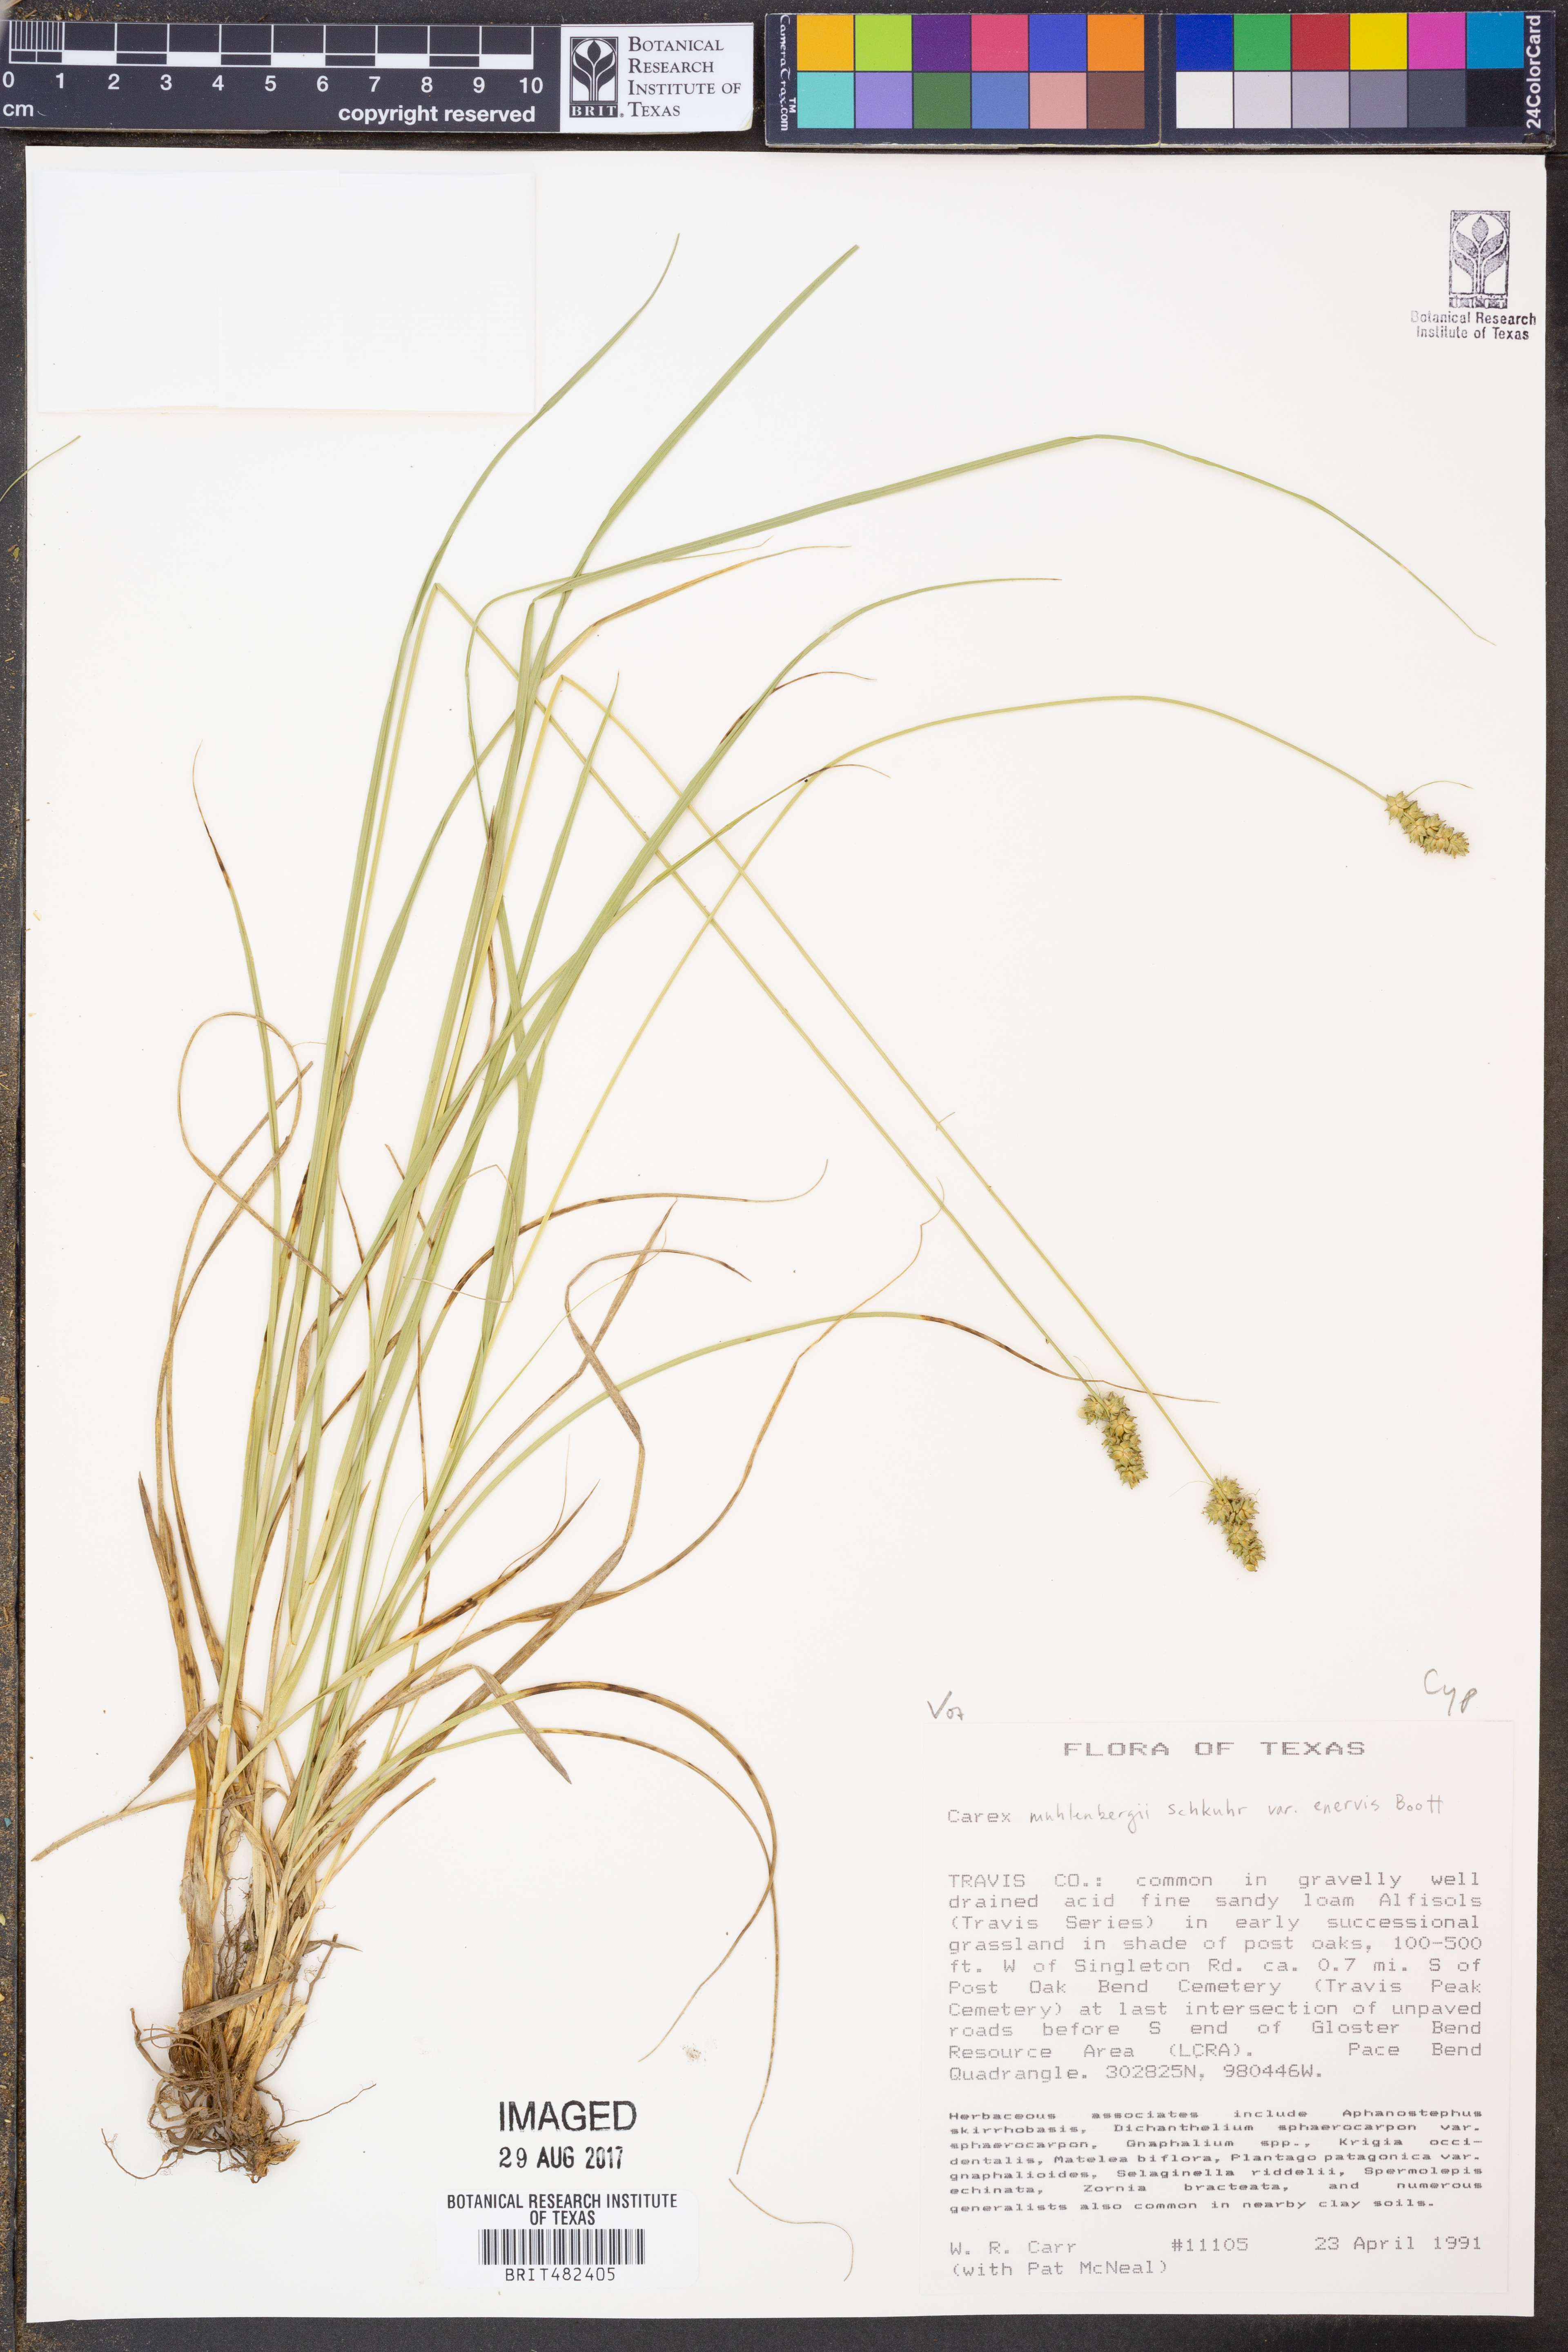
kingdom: Plantae
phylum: Tracheophyta
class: Liliopsida
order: Poales
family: Cyperaceae
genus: Carex
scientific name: Carex vulpinoidea
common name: American fox-sedge
